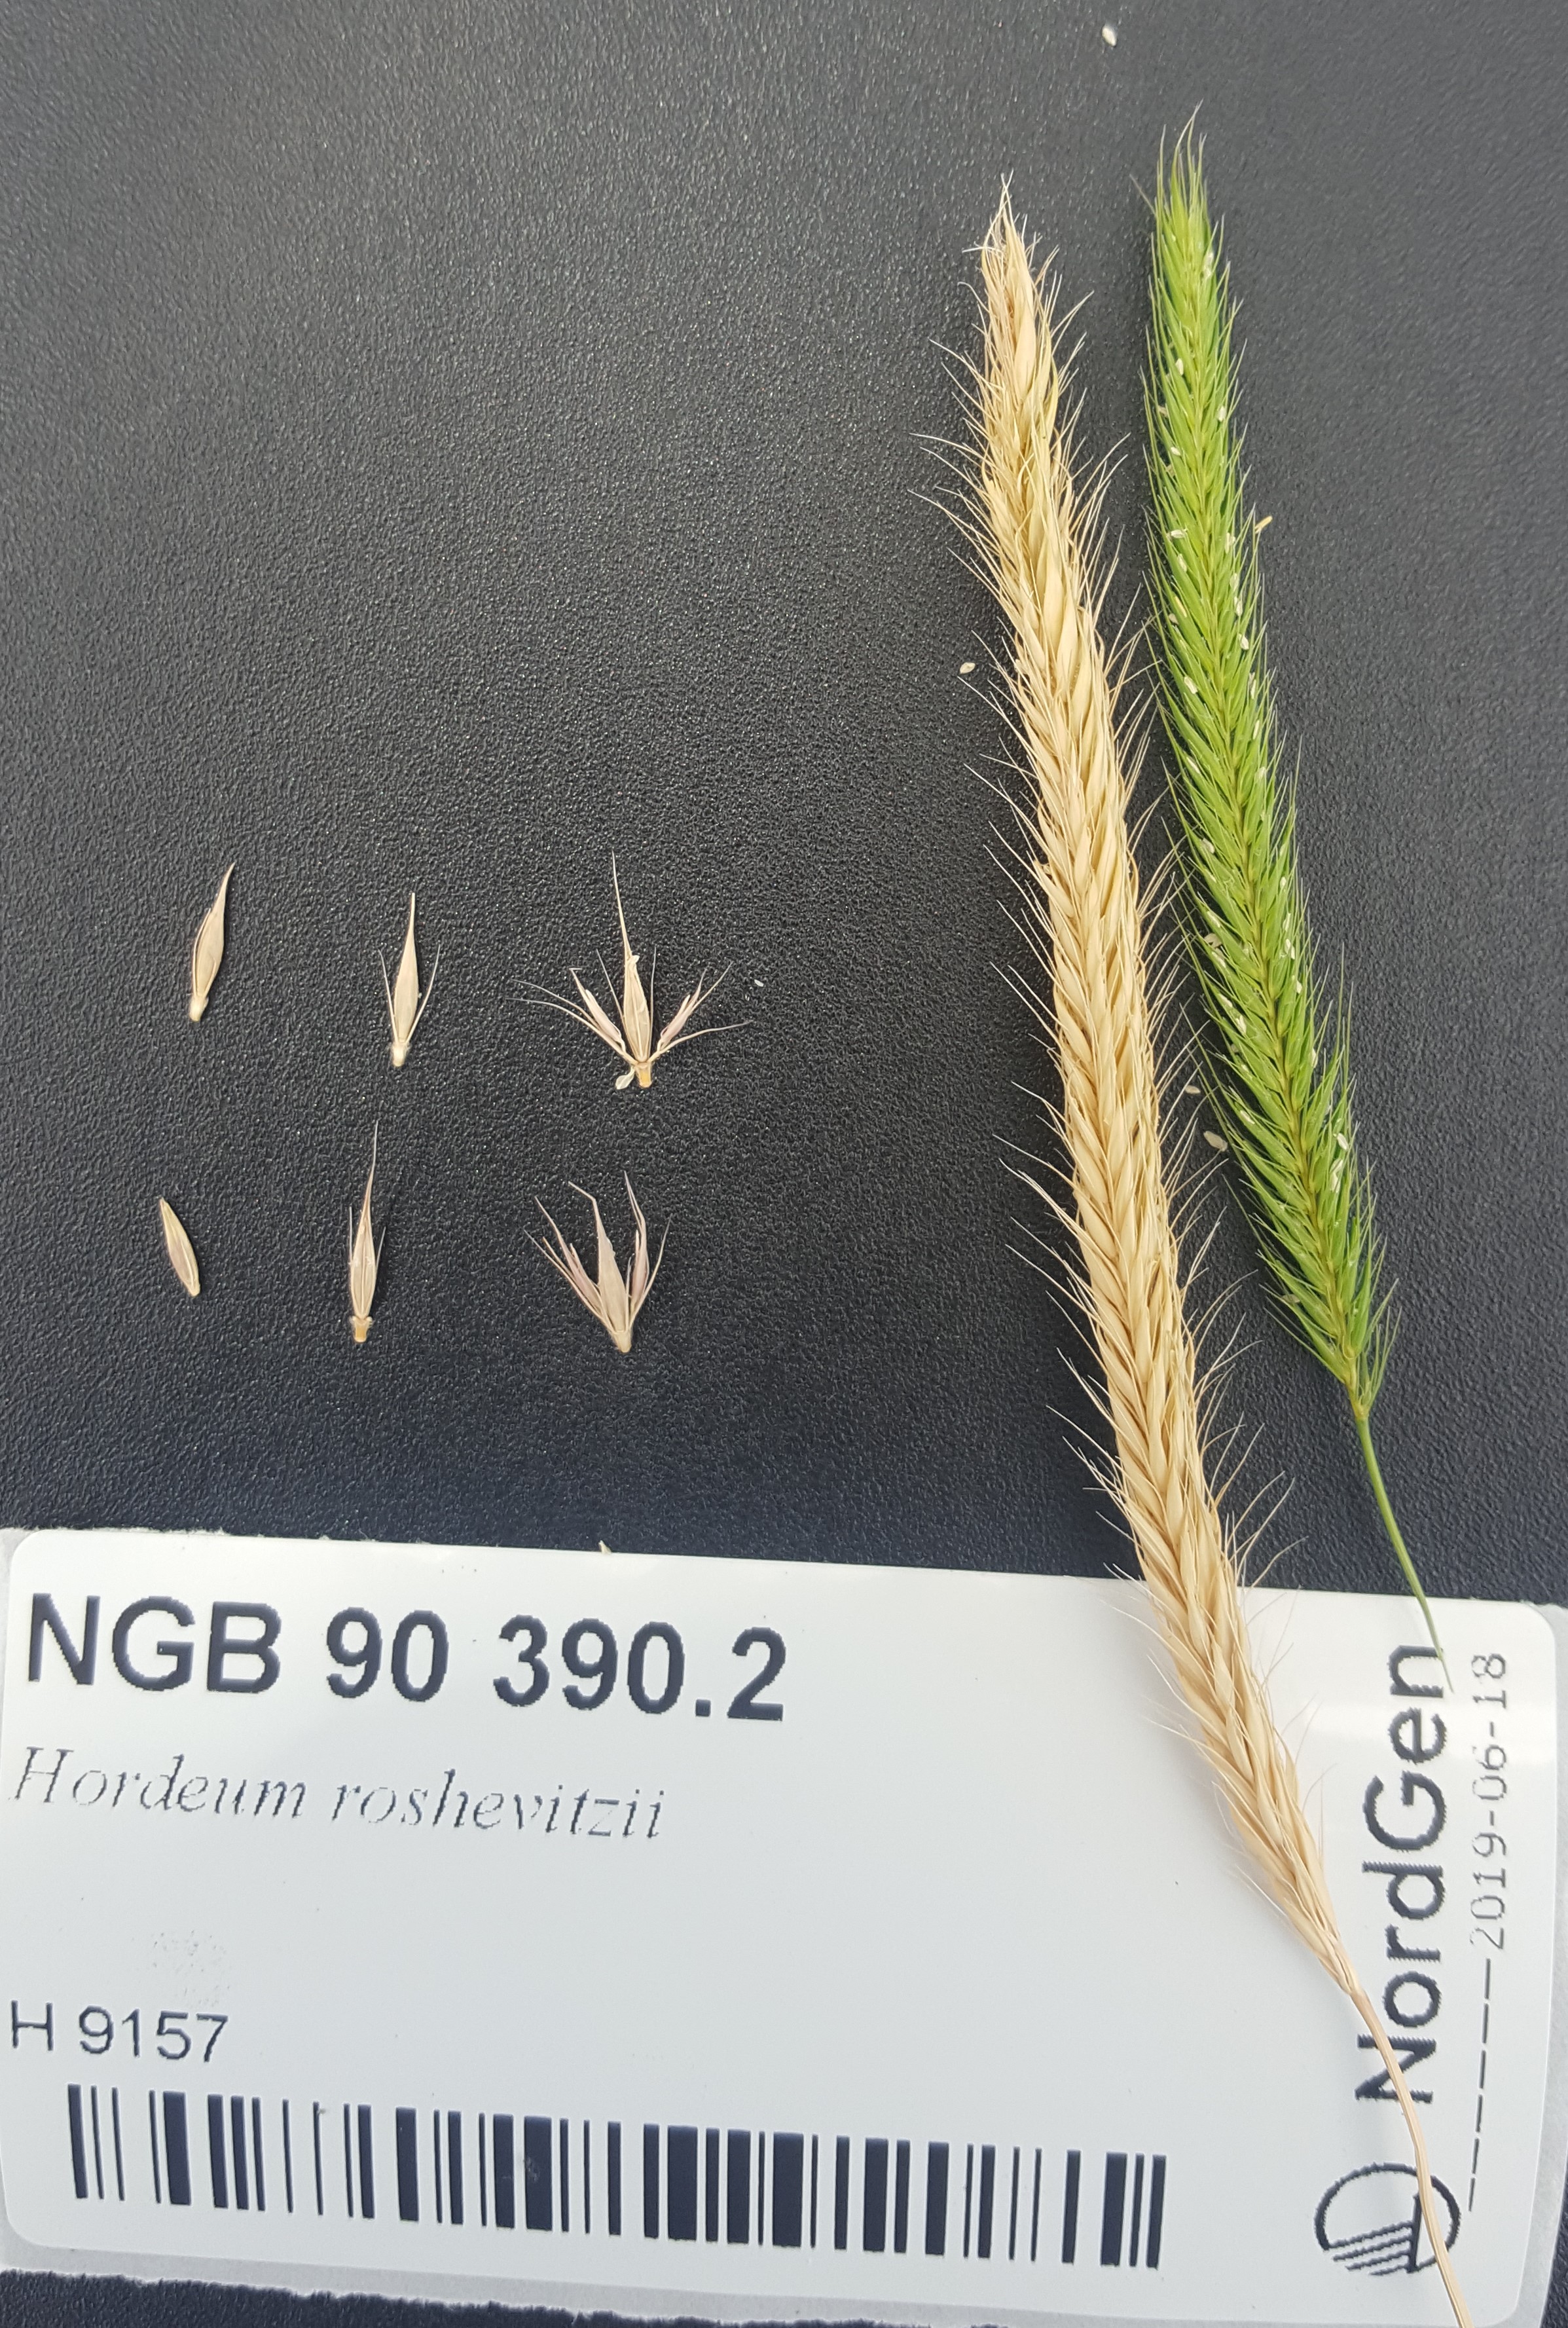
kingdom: Plantae
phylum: Tracheophyta
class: Liliopsida
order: Poales
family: Poaceae
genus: Hordeum
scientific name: Hordeum roshevitzii
